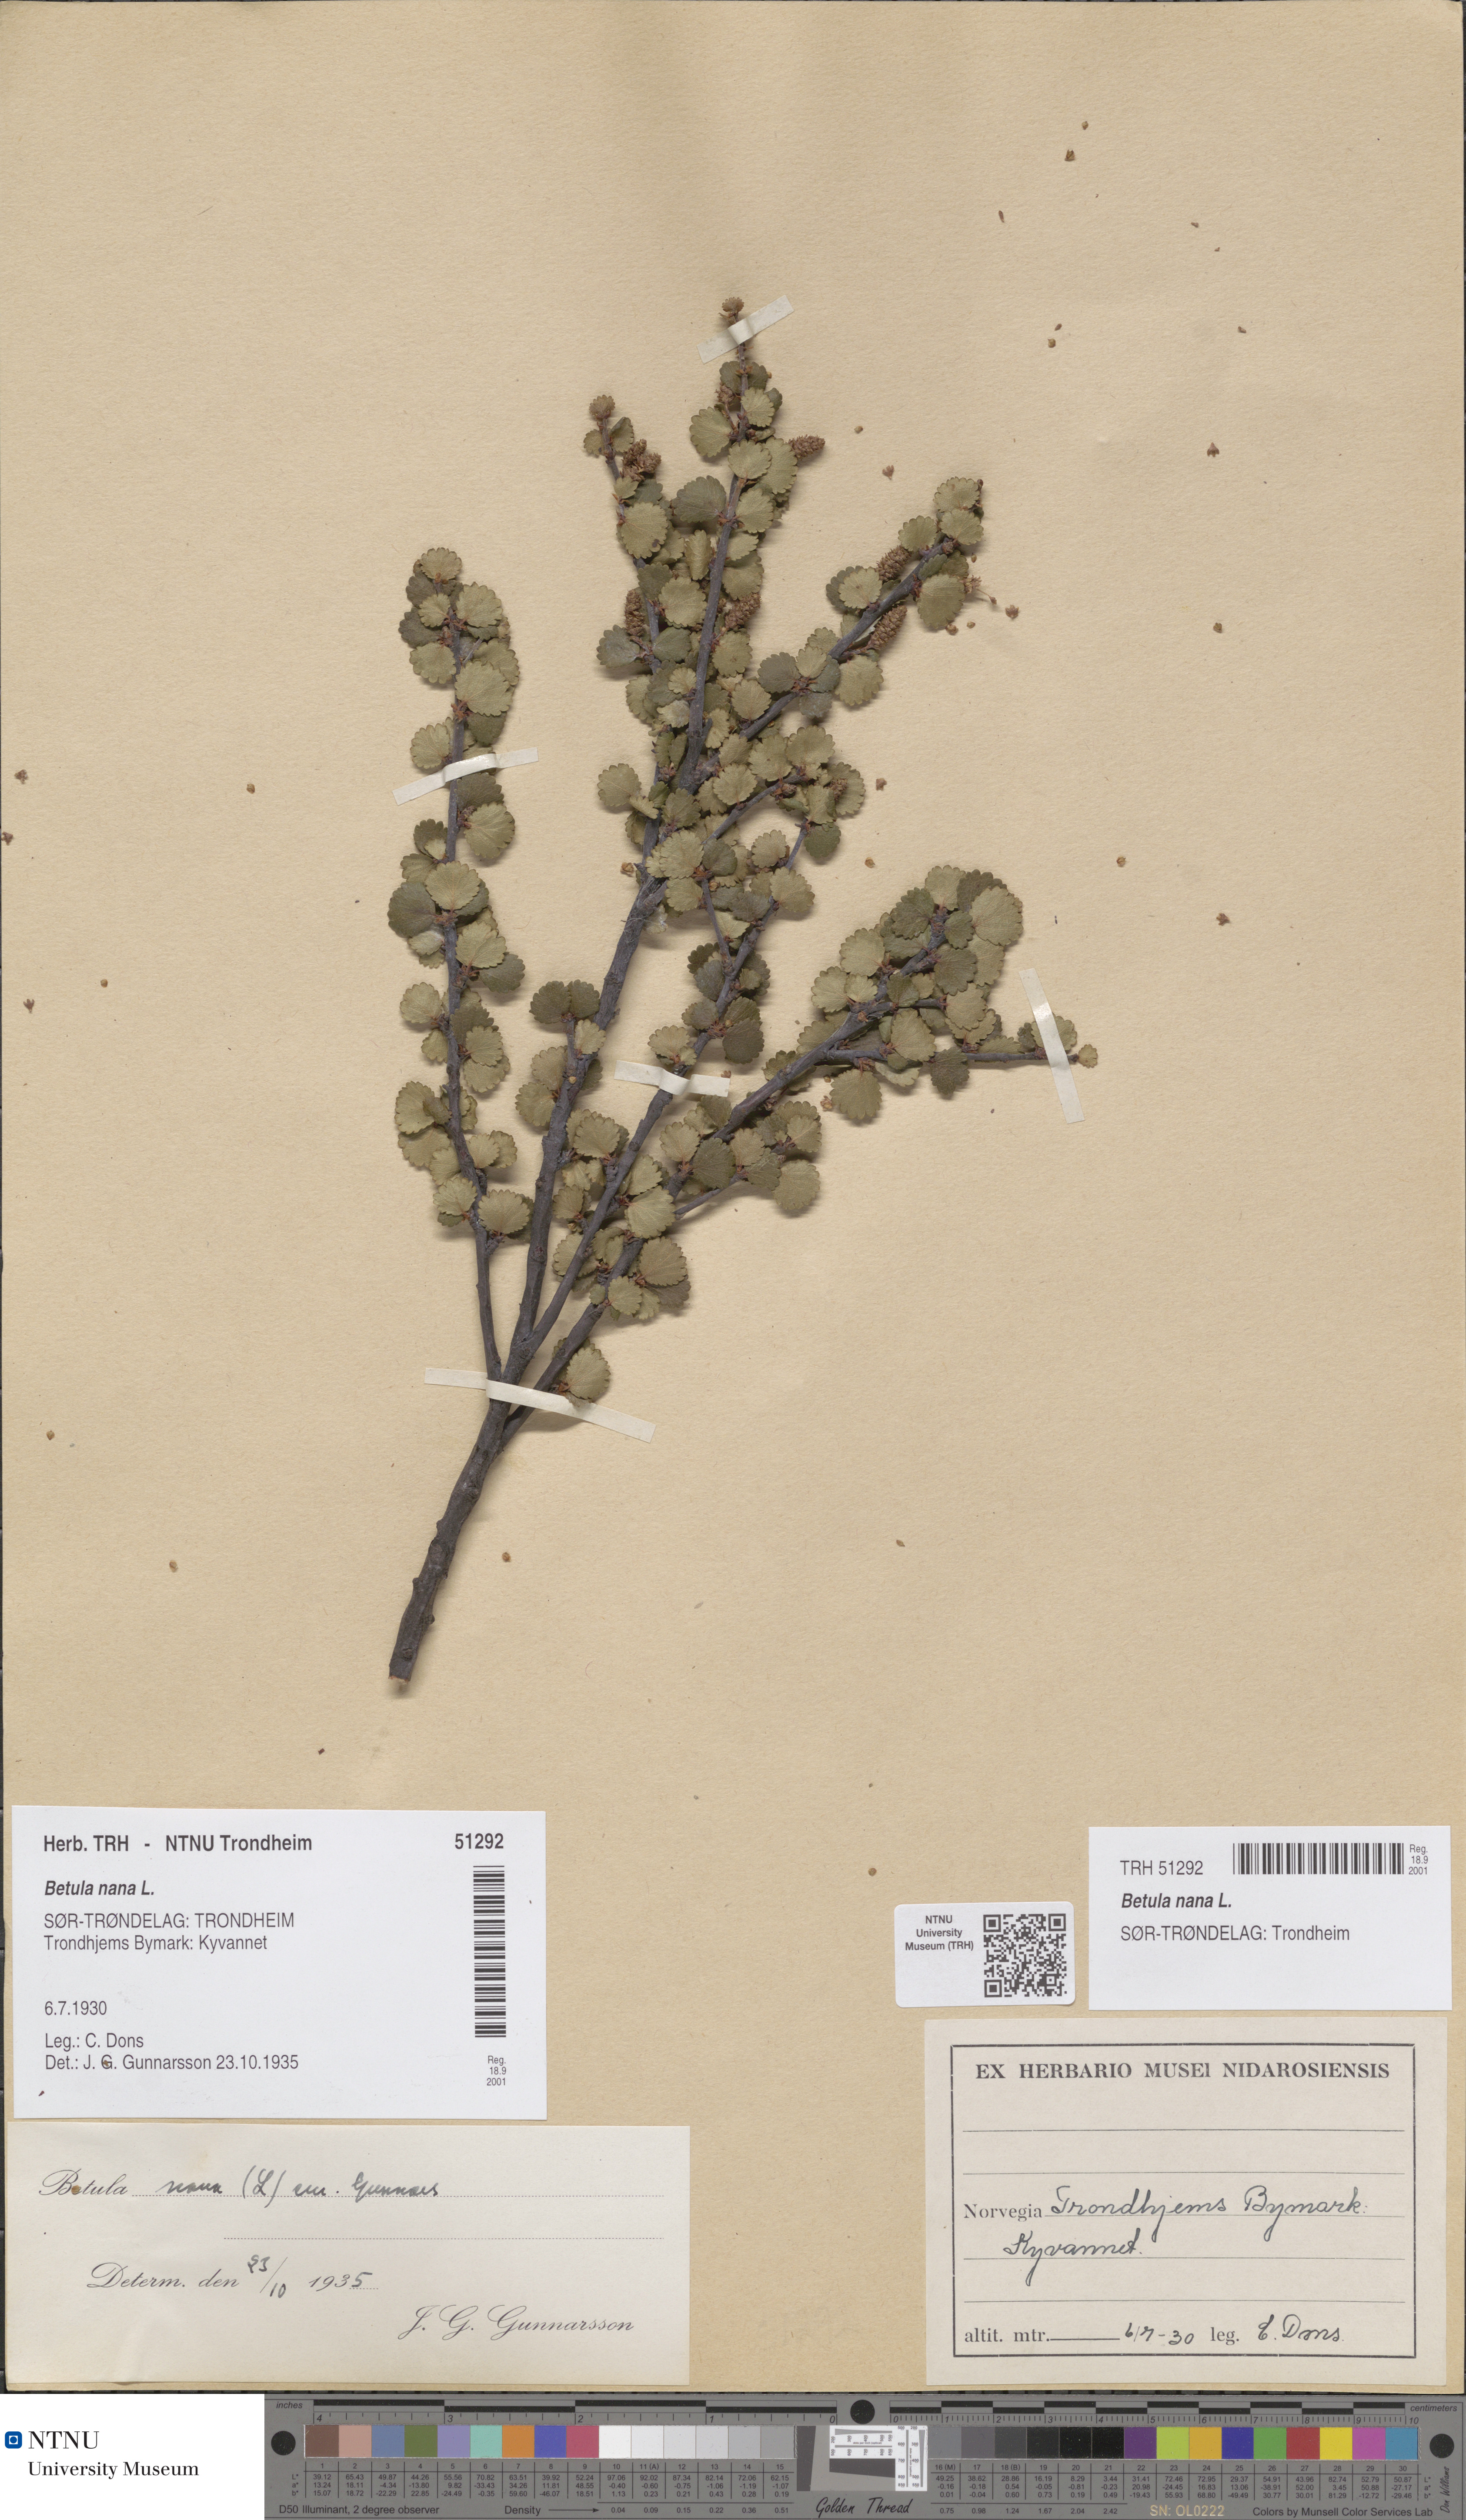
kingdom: Plantae
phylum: Tracheophyta
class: Magnoliopsida
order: Fagales
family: Betulaceae
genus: Betula
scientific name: Betula nana
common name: Arctic dwarf birch
